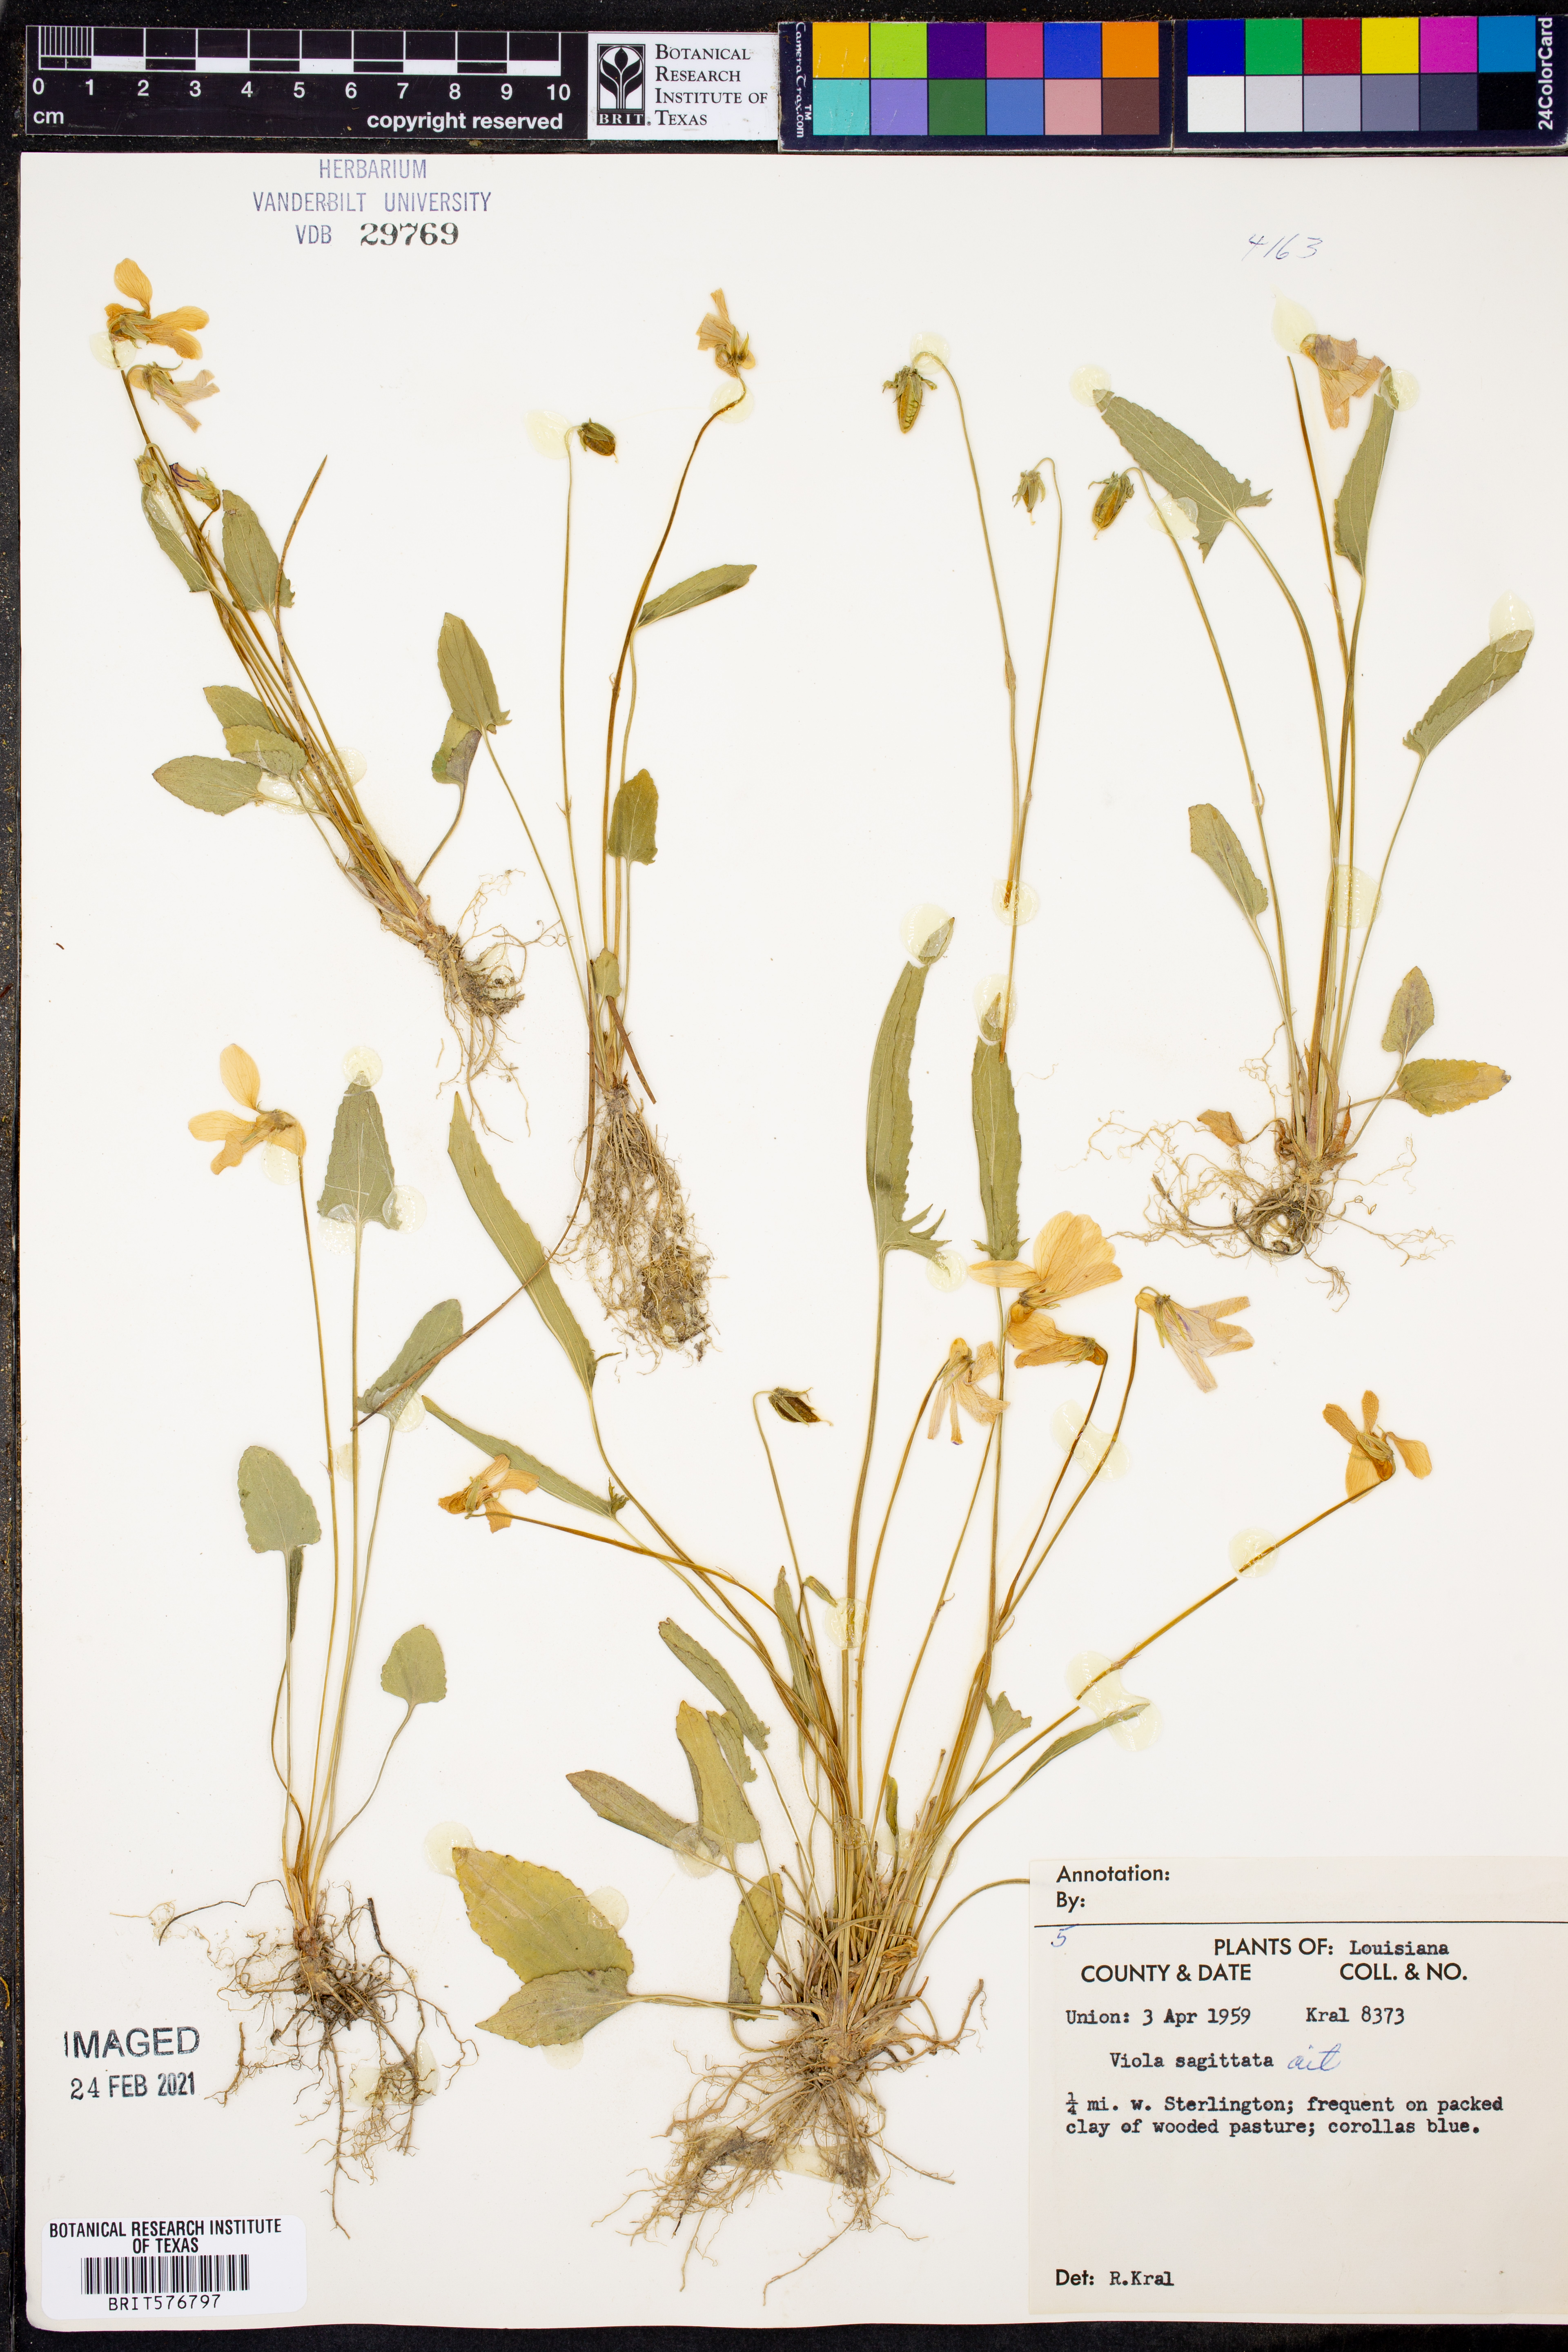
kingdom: Plantae
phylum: Tracheophyta
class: Magnoliopsida
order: Malpighiales
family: Violaceae
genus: Viola
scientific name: Viola sagittata
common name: Arrowhead violet
